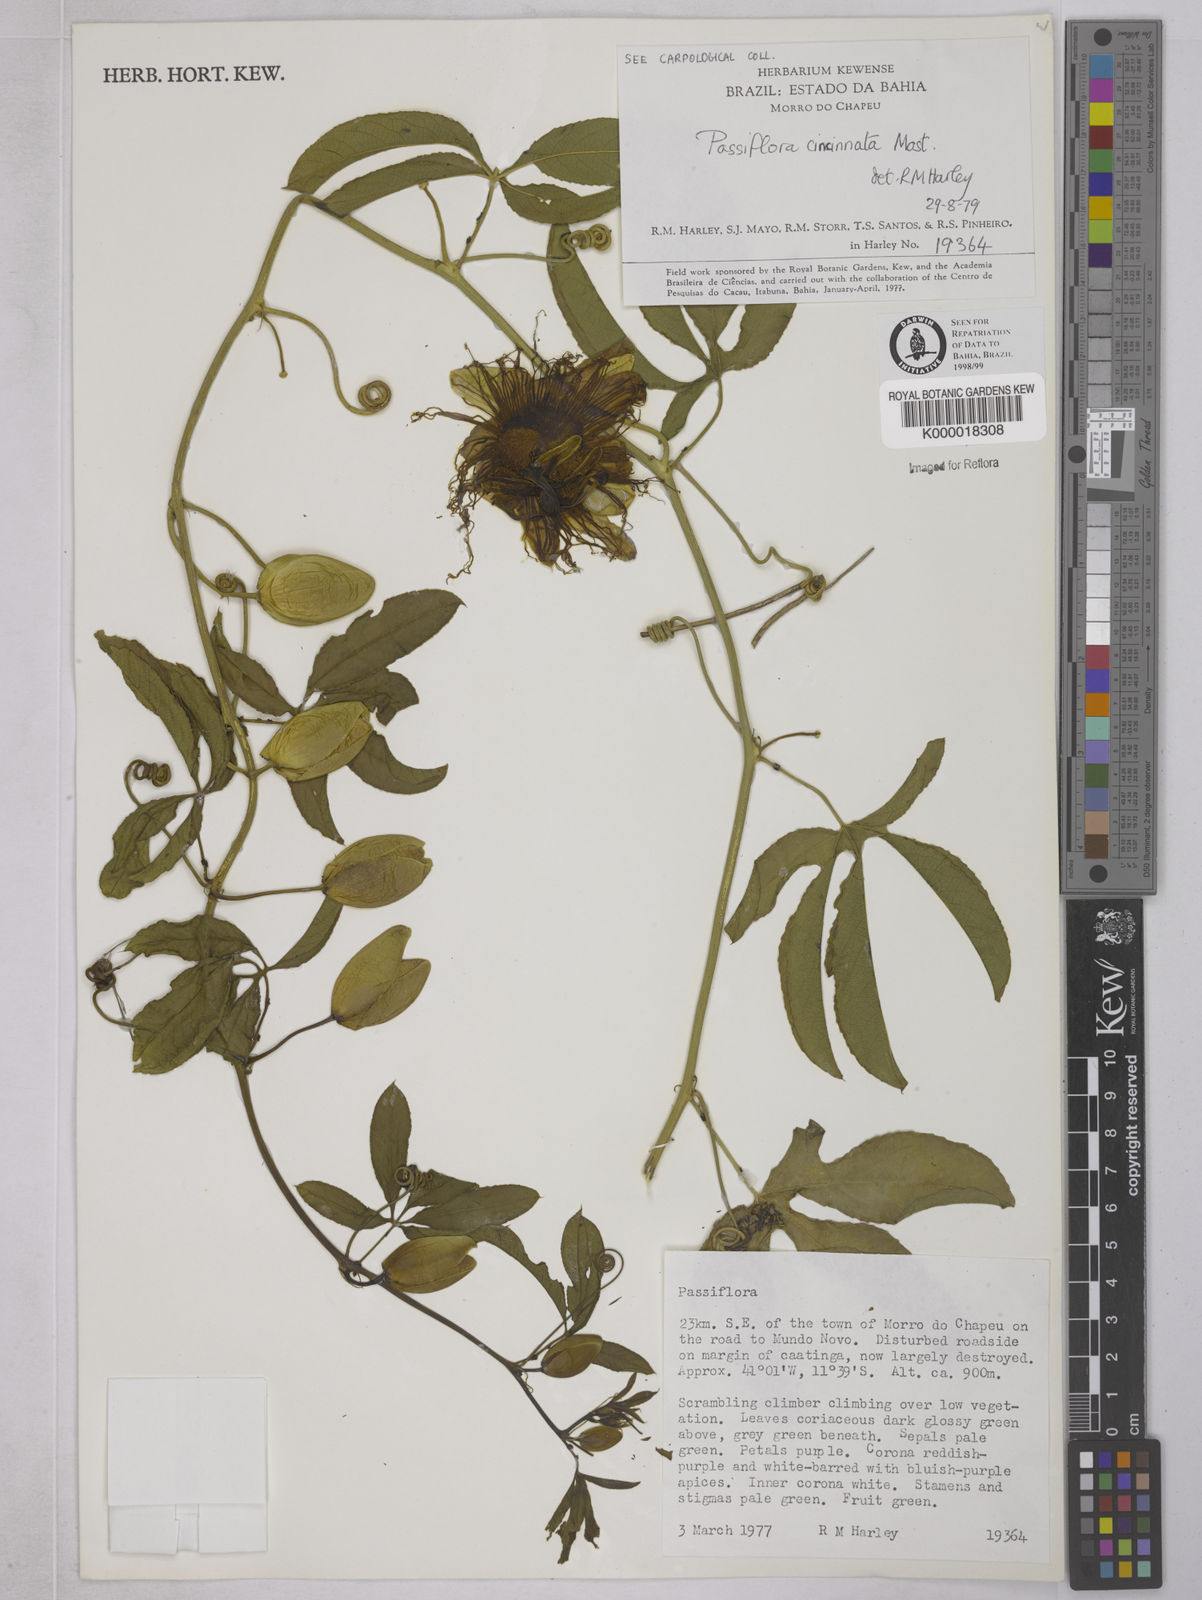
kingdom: Plantae
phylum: Tracheophyta
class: Magnoliopsida
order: Malpighiales
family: Passifloraceae
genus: Passiflora
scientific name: Passiflora cincinnata
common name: Crato passionvine
